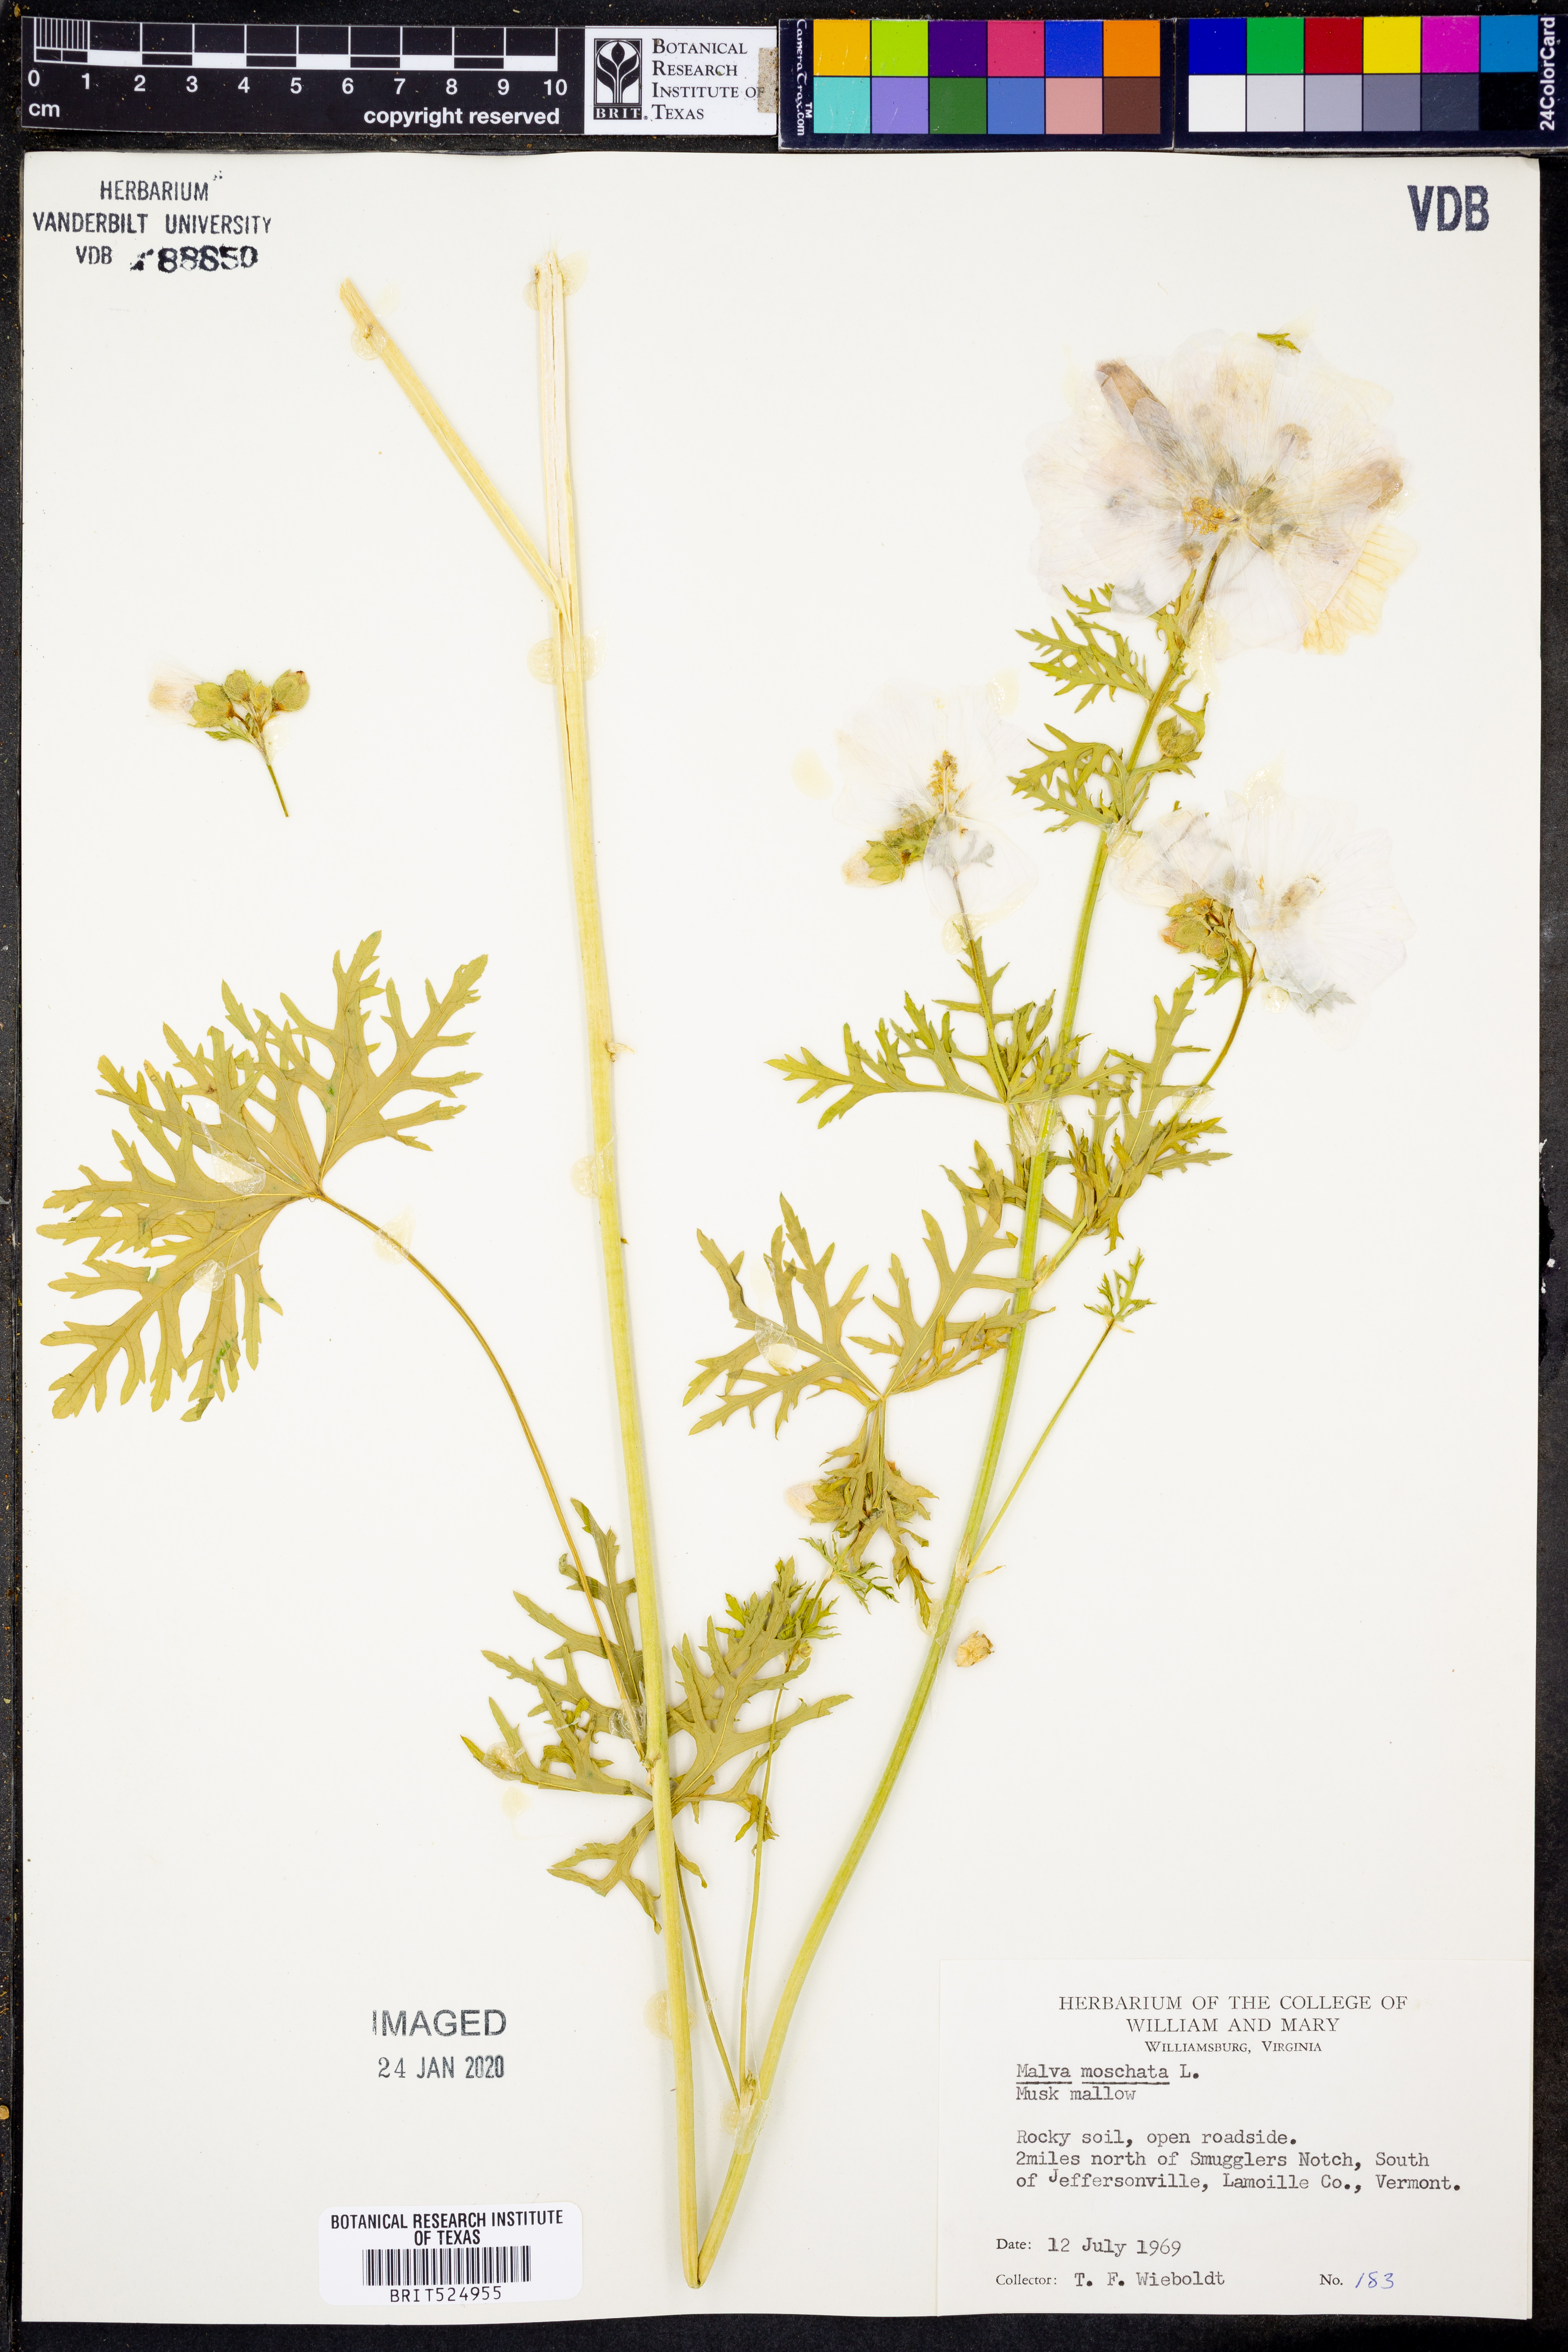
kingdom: Plantae
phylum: Tracheophyta
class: Magnoliopsida
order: Malvales
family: Malvaceae
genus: Malva
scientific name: Malva moschata
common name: Musk mallow
